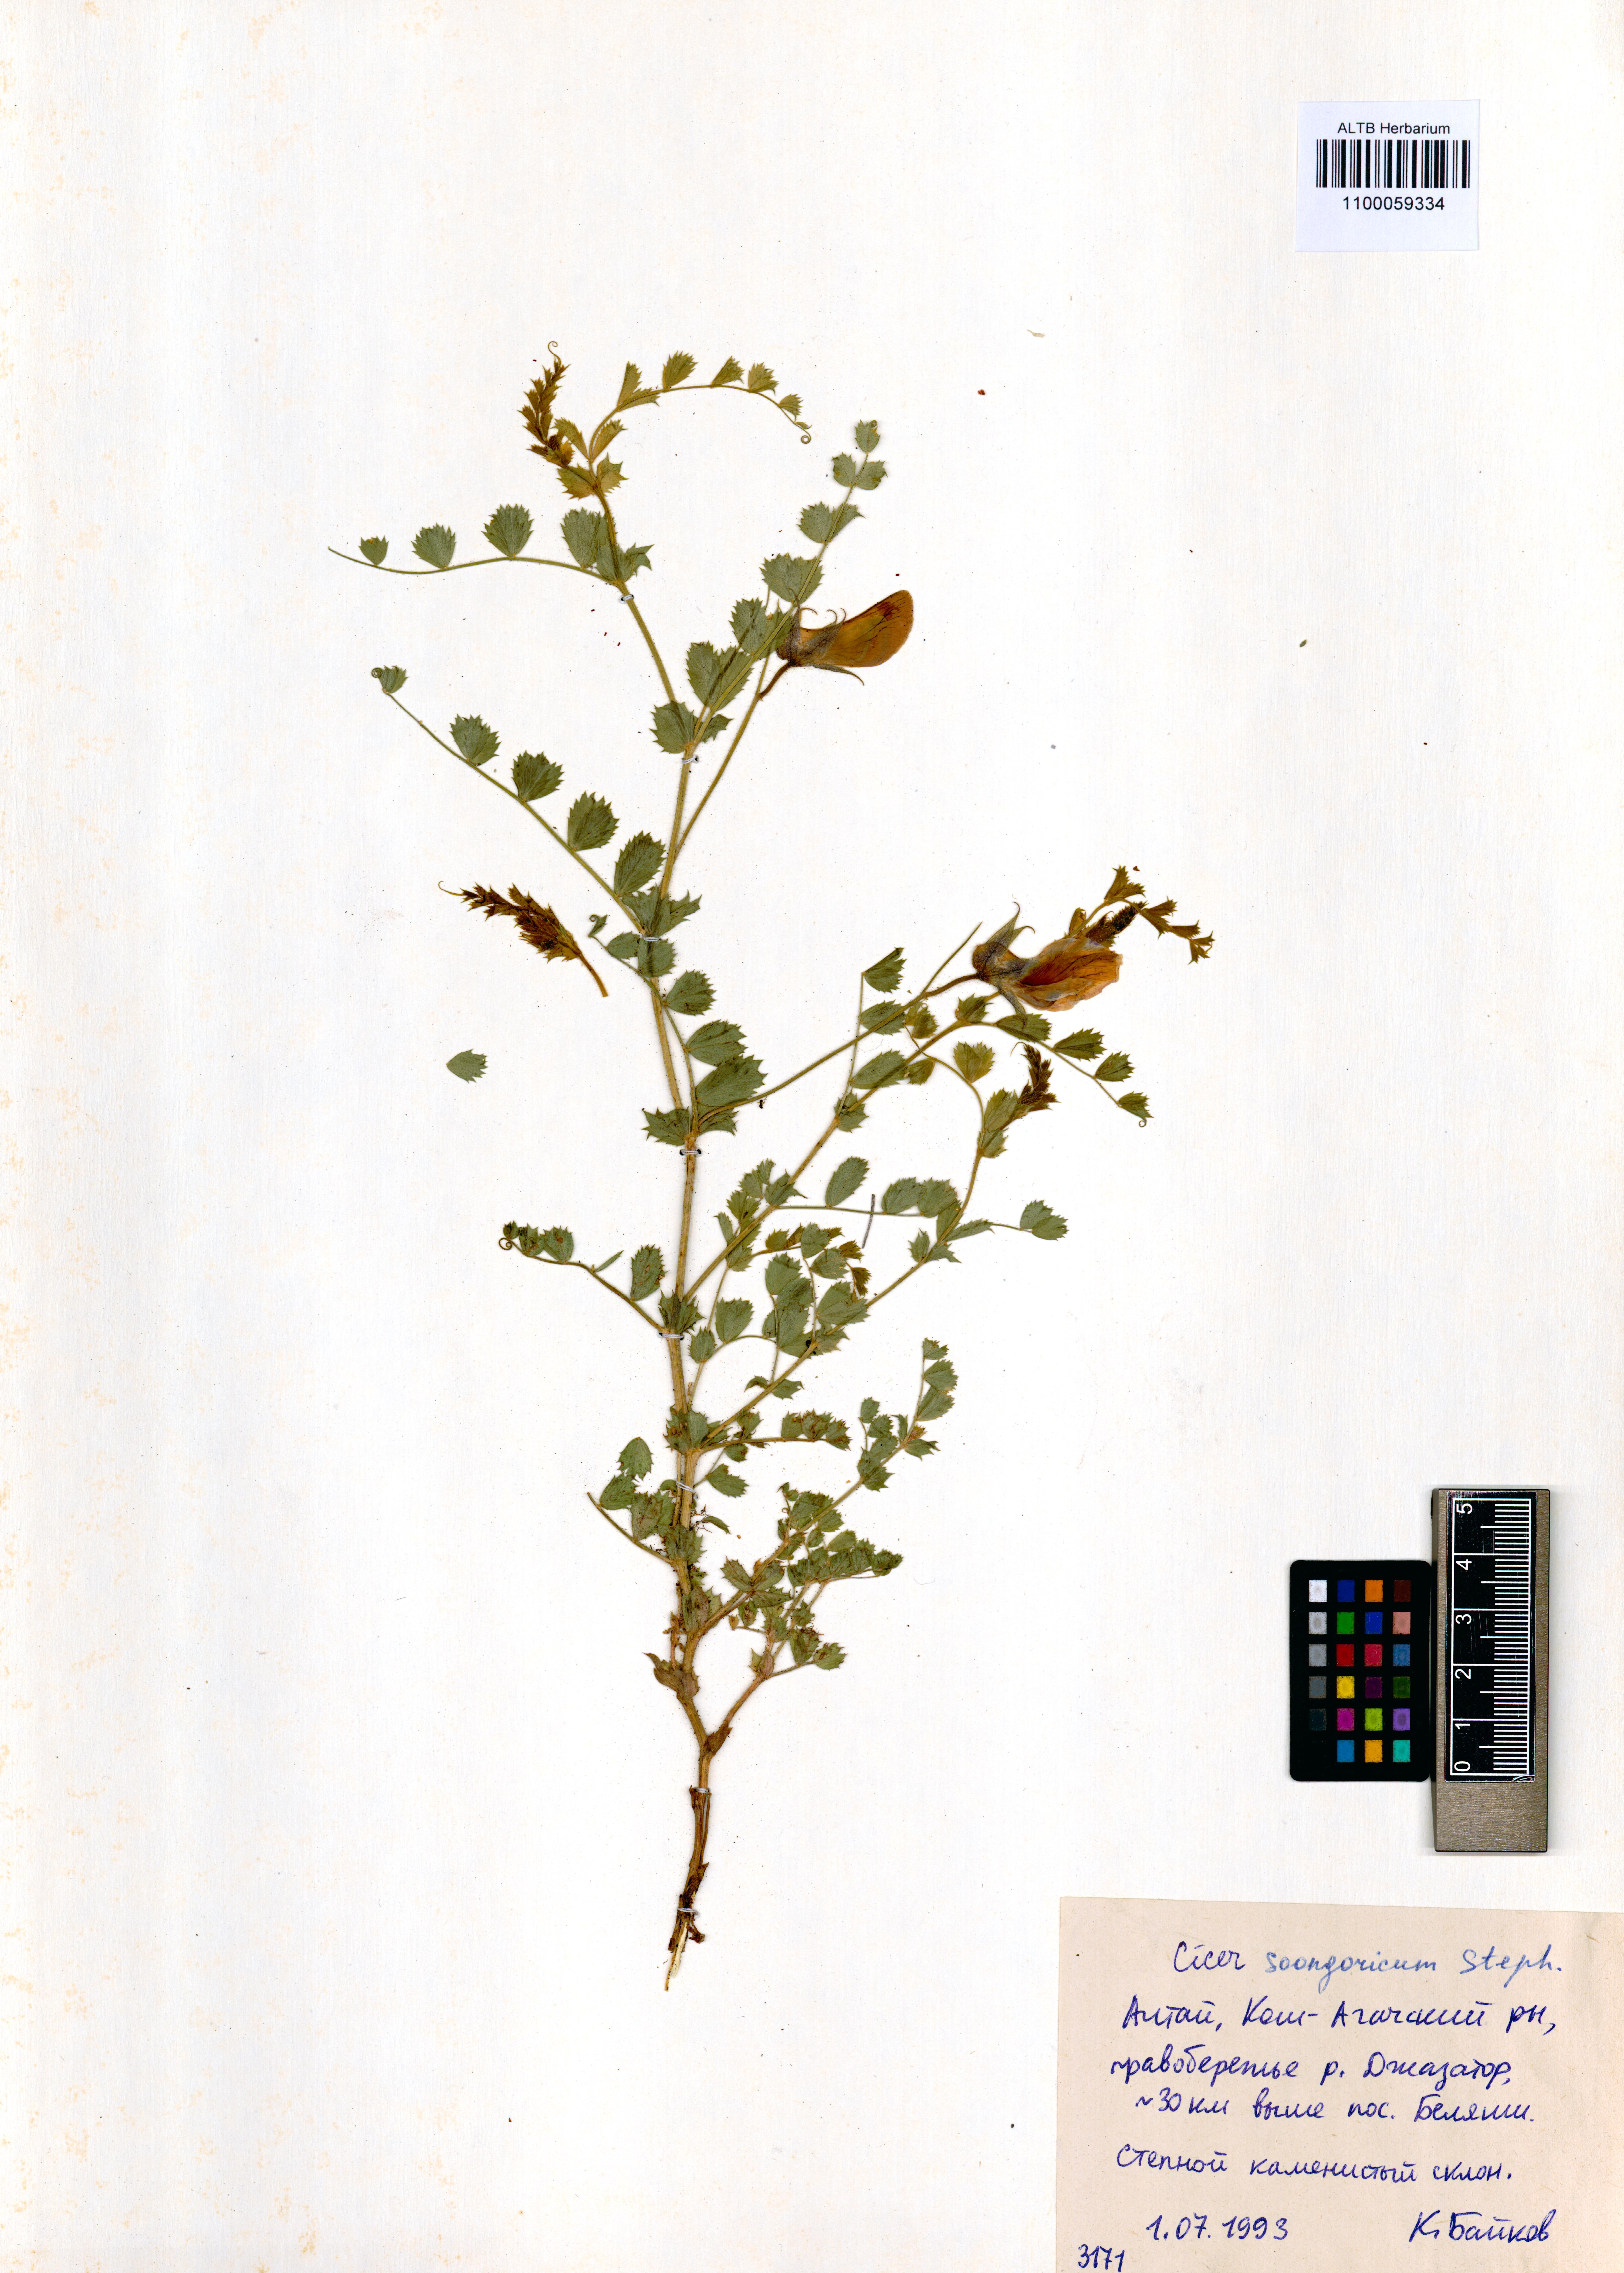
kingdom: Plantae
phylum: Tracheophyta
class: Magnoliopsida
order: Fabales
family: Fabaceae
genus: Cicer
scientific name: Cicer songaricum
